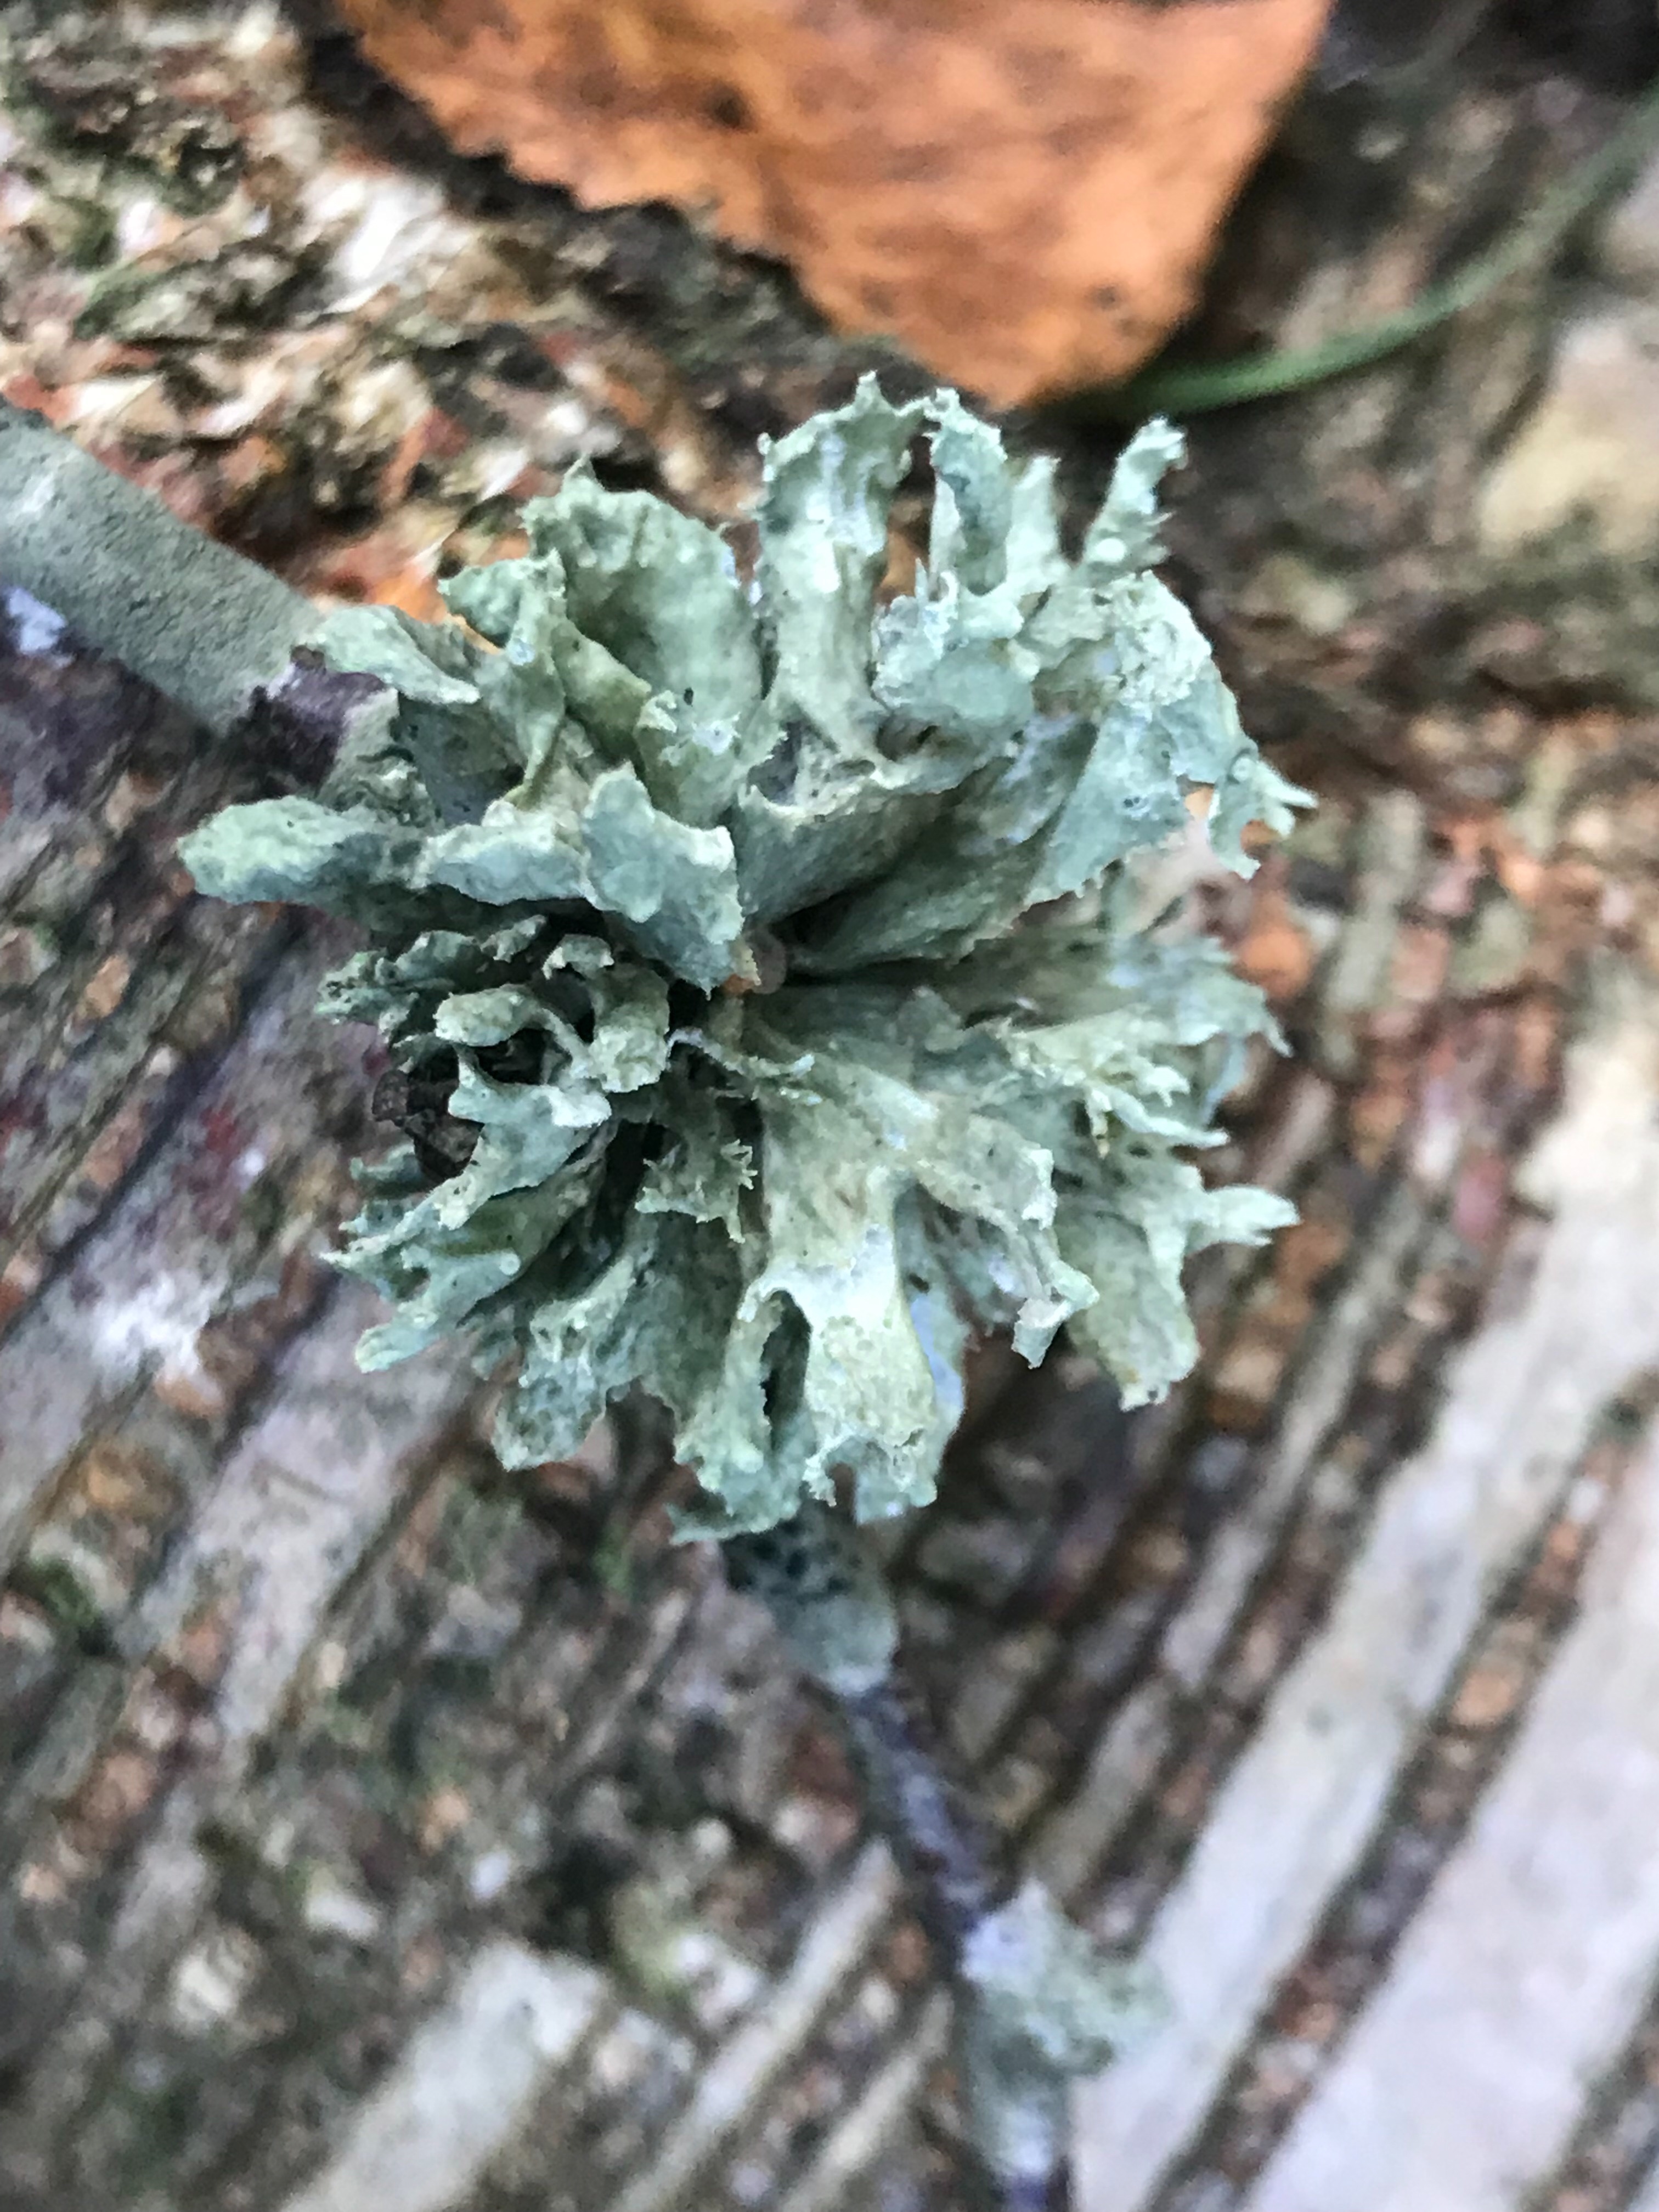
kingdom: Fungi
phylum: Ascomycota
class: Lecanoromycetes
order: Lecanorales
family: Ramalinaceae
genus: Ramalina
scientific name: Ramalina
